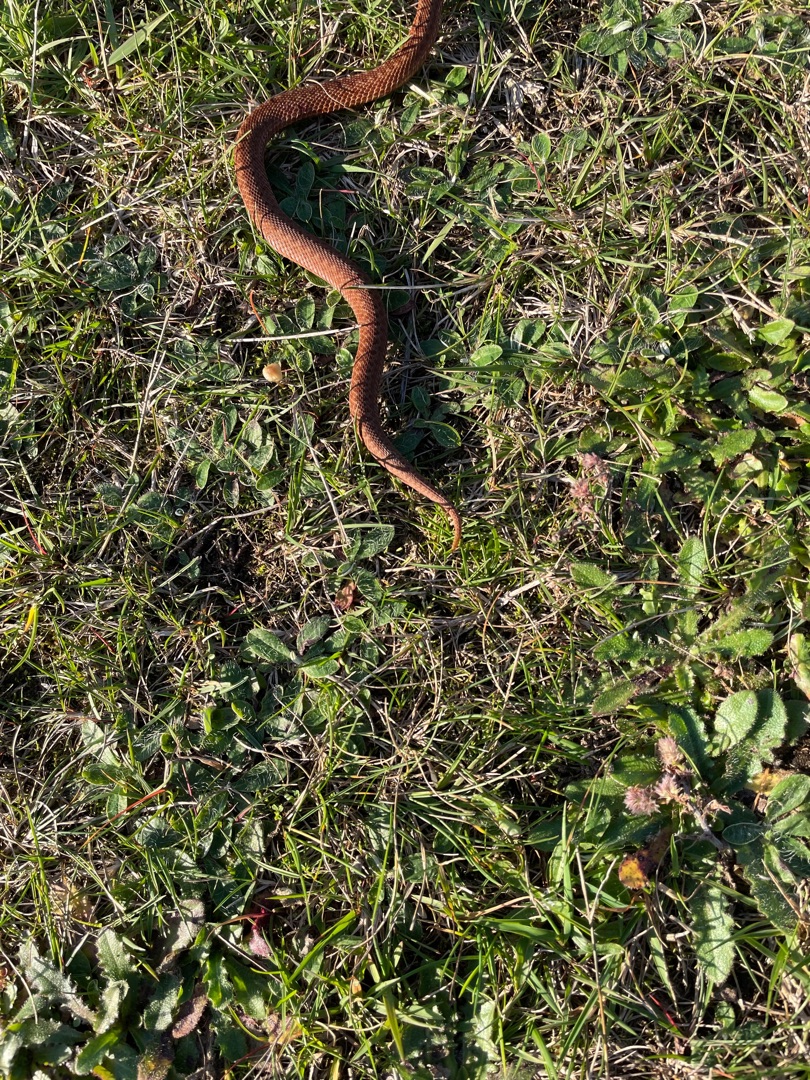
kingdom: Animalia
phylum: Chordata
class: Squamata
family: Viperidae
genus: Vipera
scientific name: Vipera berus
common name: Hugorm
